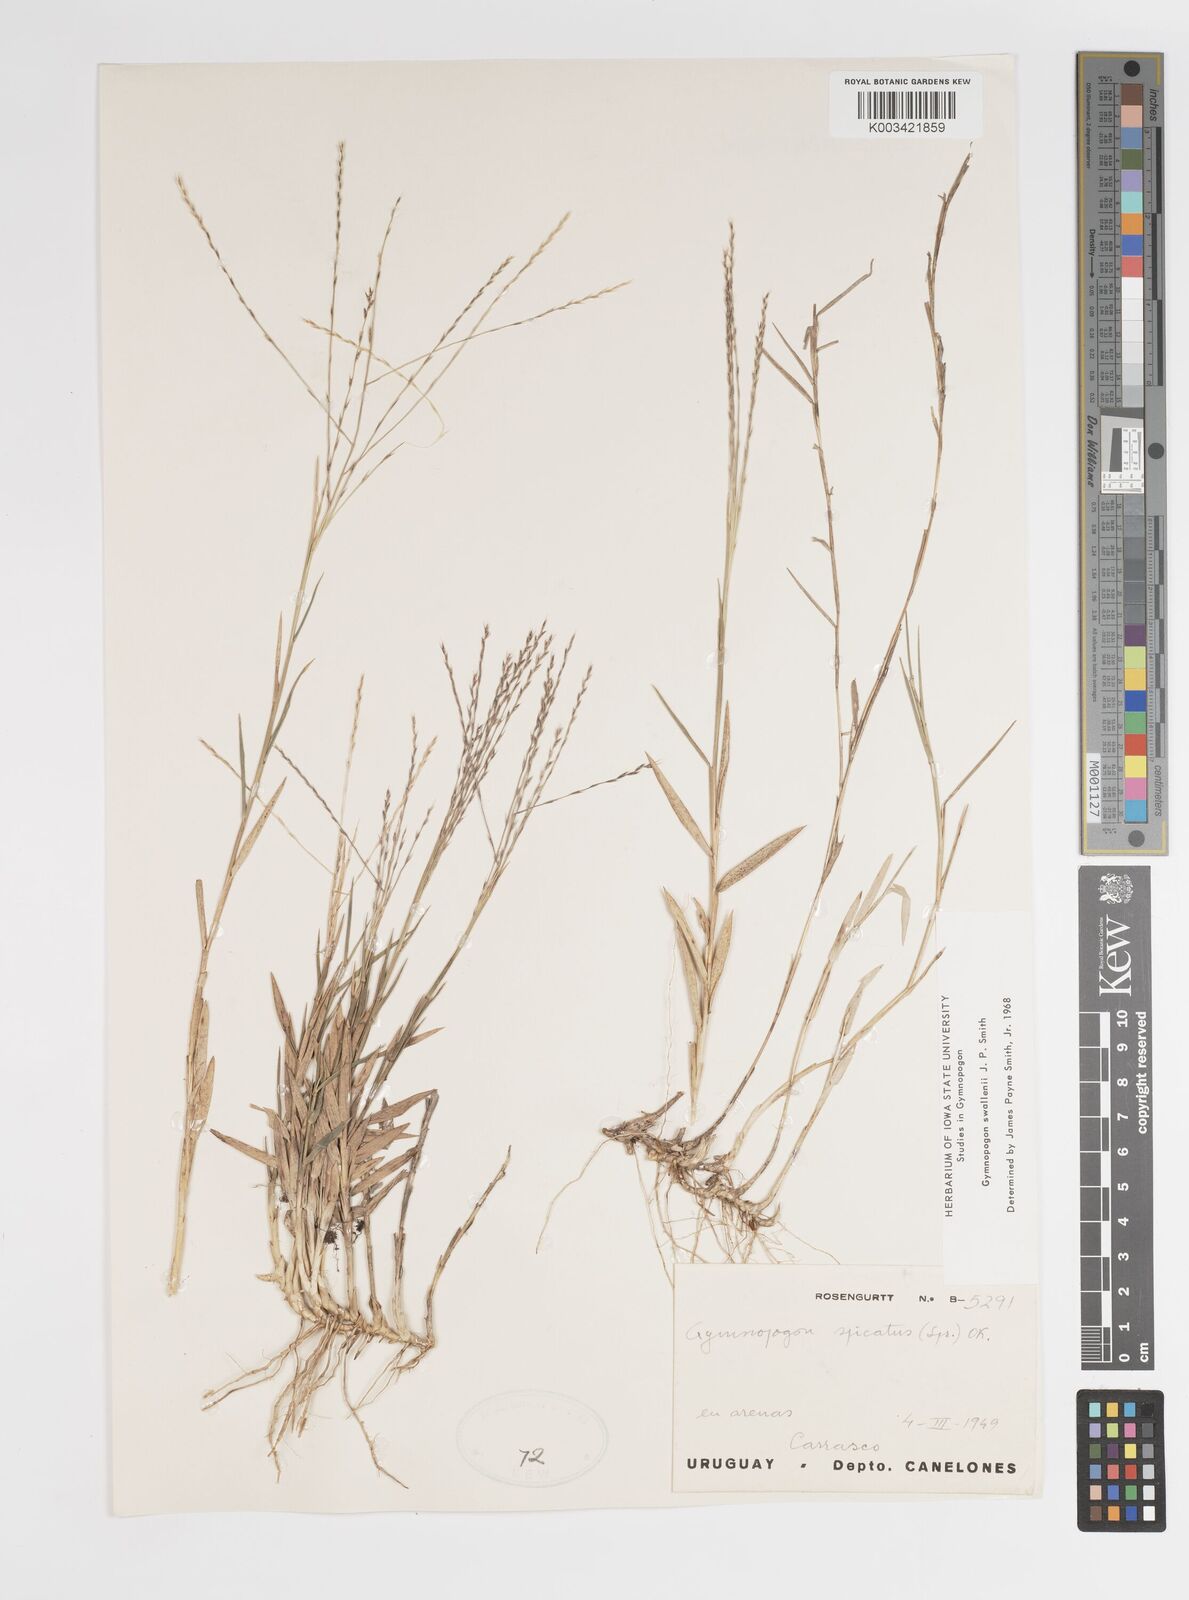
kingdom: Plantae
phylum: Tracheophyta
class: Liliopsida
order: Poales
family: Poaceae
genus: Gymnopogon
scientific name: Gymnopogon legrandii
